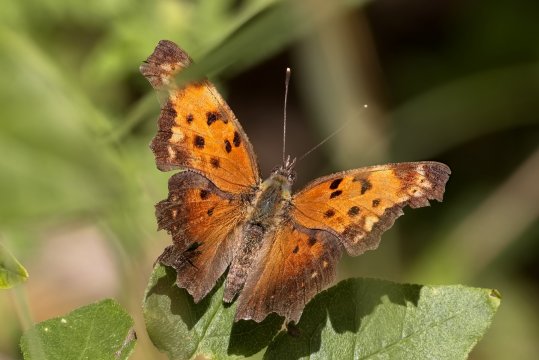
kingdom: Animalia
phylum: Arthropoda
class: Insecta
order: Lepidoptera
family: Nymphalidae
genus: Polygonia
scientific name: Polygonia progne
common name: Gray Comma
